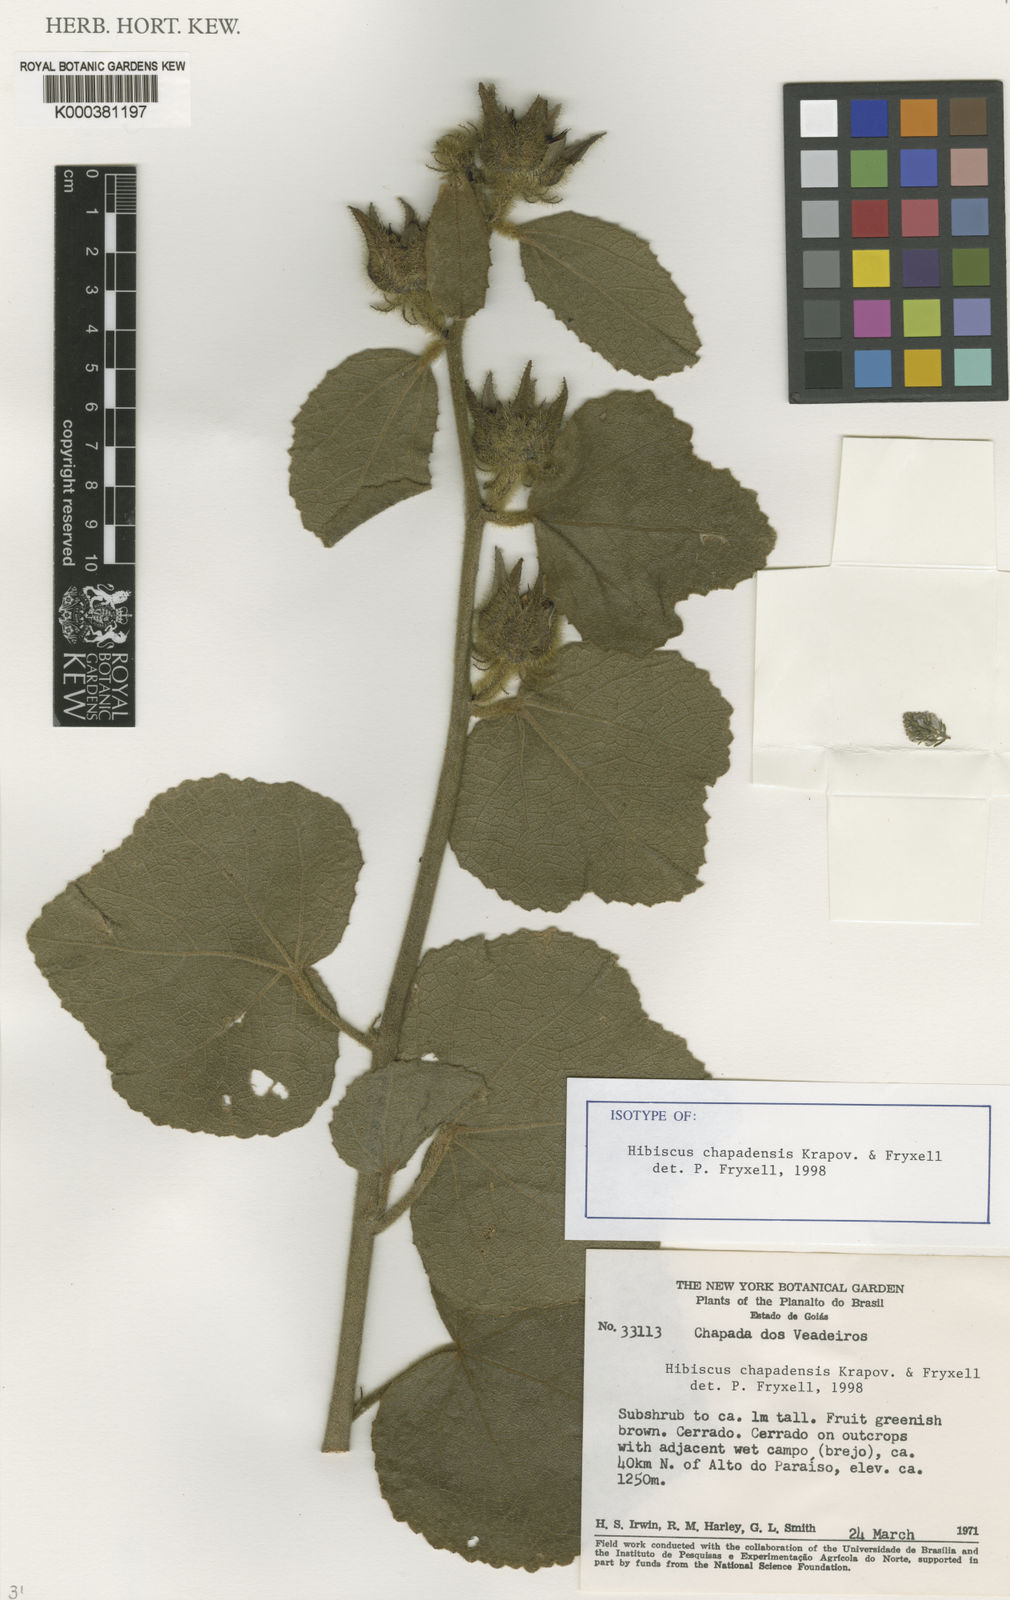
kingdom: Plantae
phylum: Tracheophyta
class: Magnoliopsida
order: Malvales
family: Malvaceae
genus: Hibiscus
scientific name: Hibiscus chapadensis
